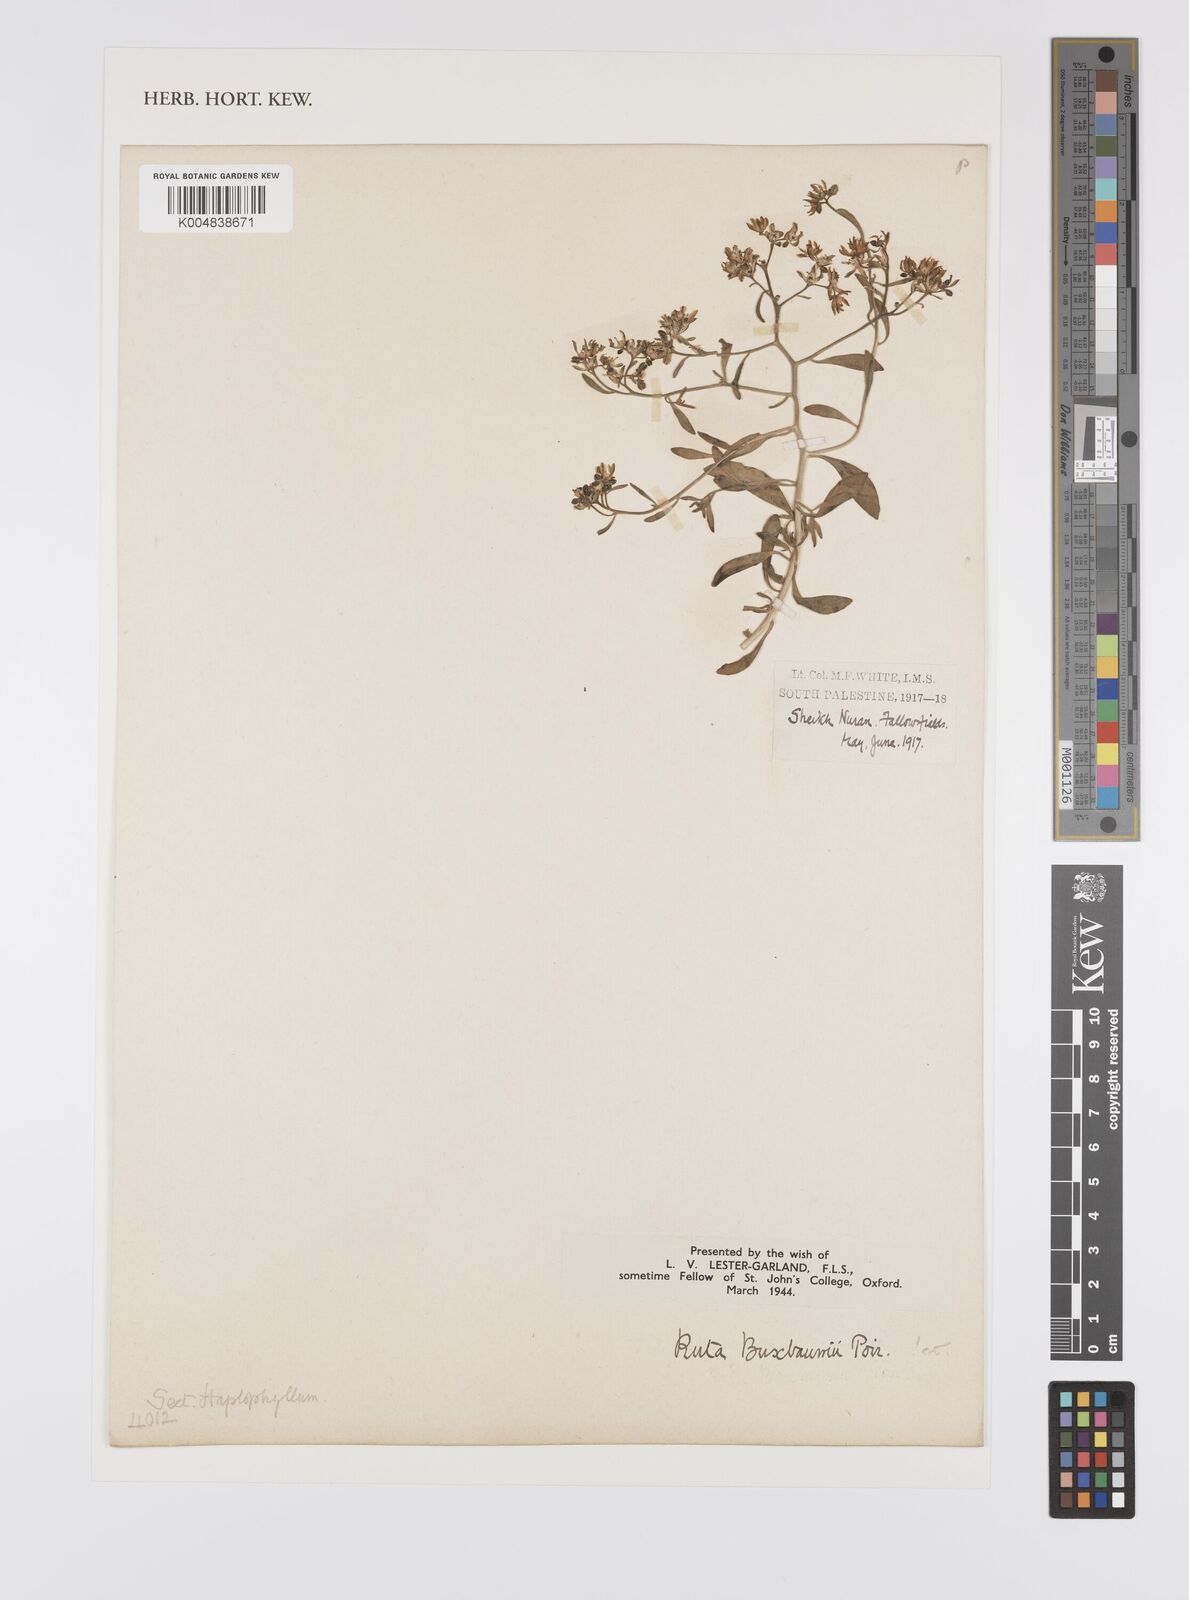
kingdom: Plantae
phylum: Tracheophyta
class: Magnoliopsida
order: Sapindales
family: Rutaceae
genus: Haplophyllum
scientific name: Haplophyllum
